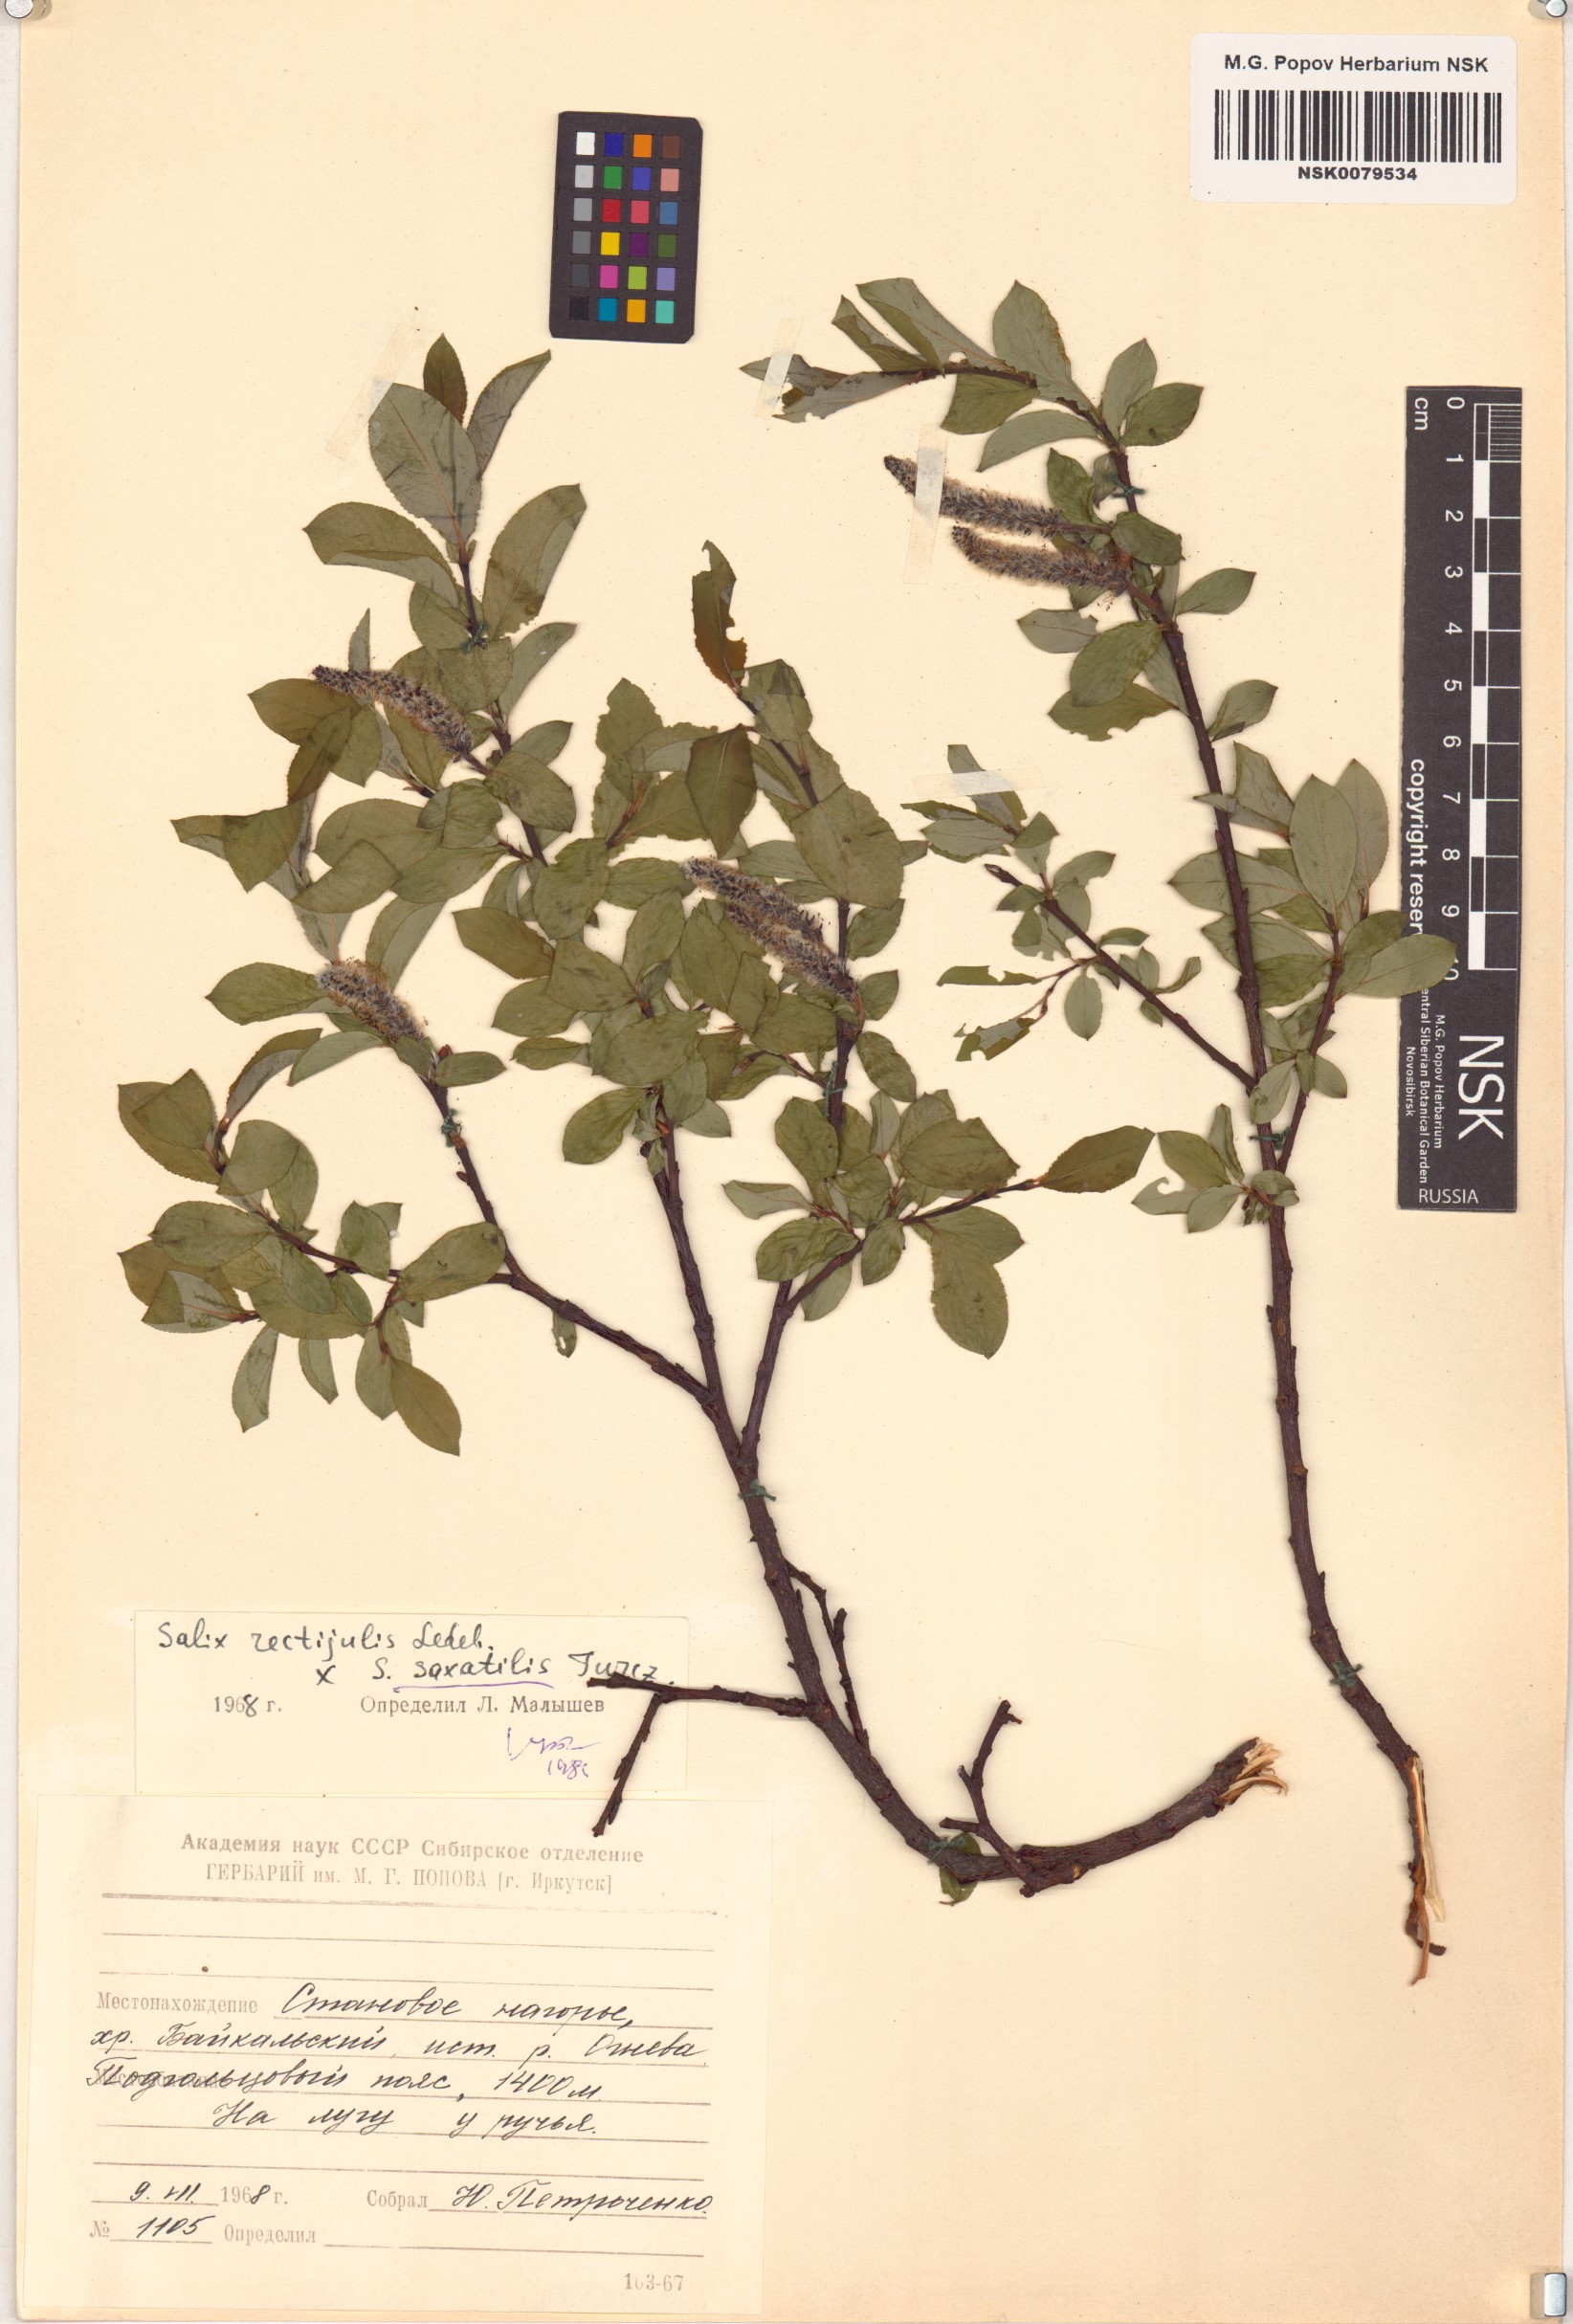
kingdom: Plantae
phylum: Tracheophyta
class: Magnoliopsida
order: Malpighiales
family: Salicaceae
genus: Salix
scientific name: Salix saxatilis
